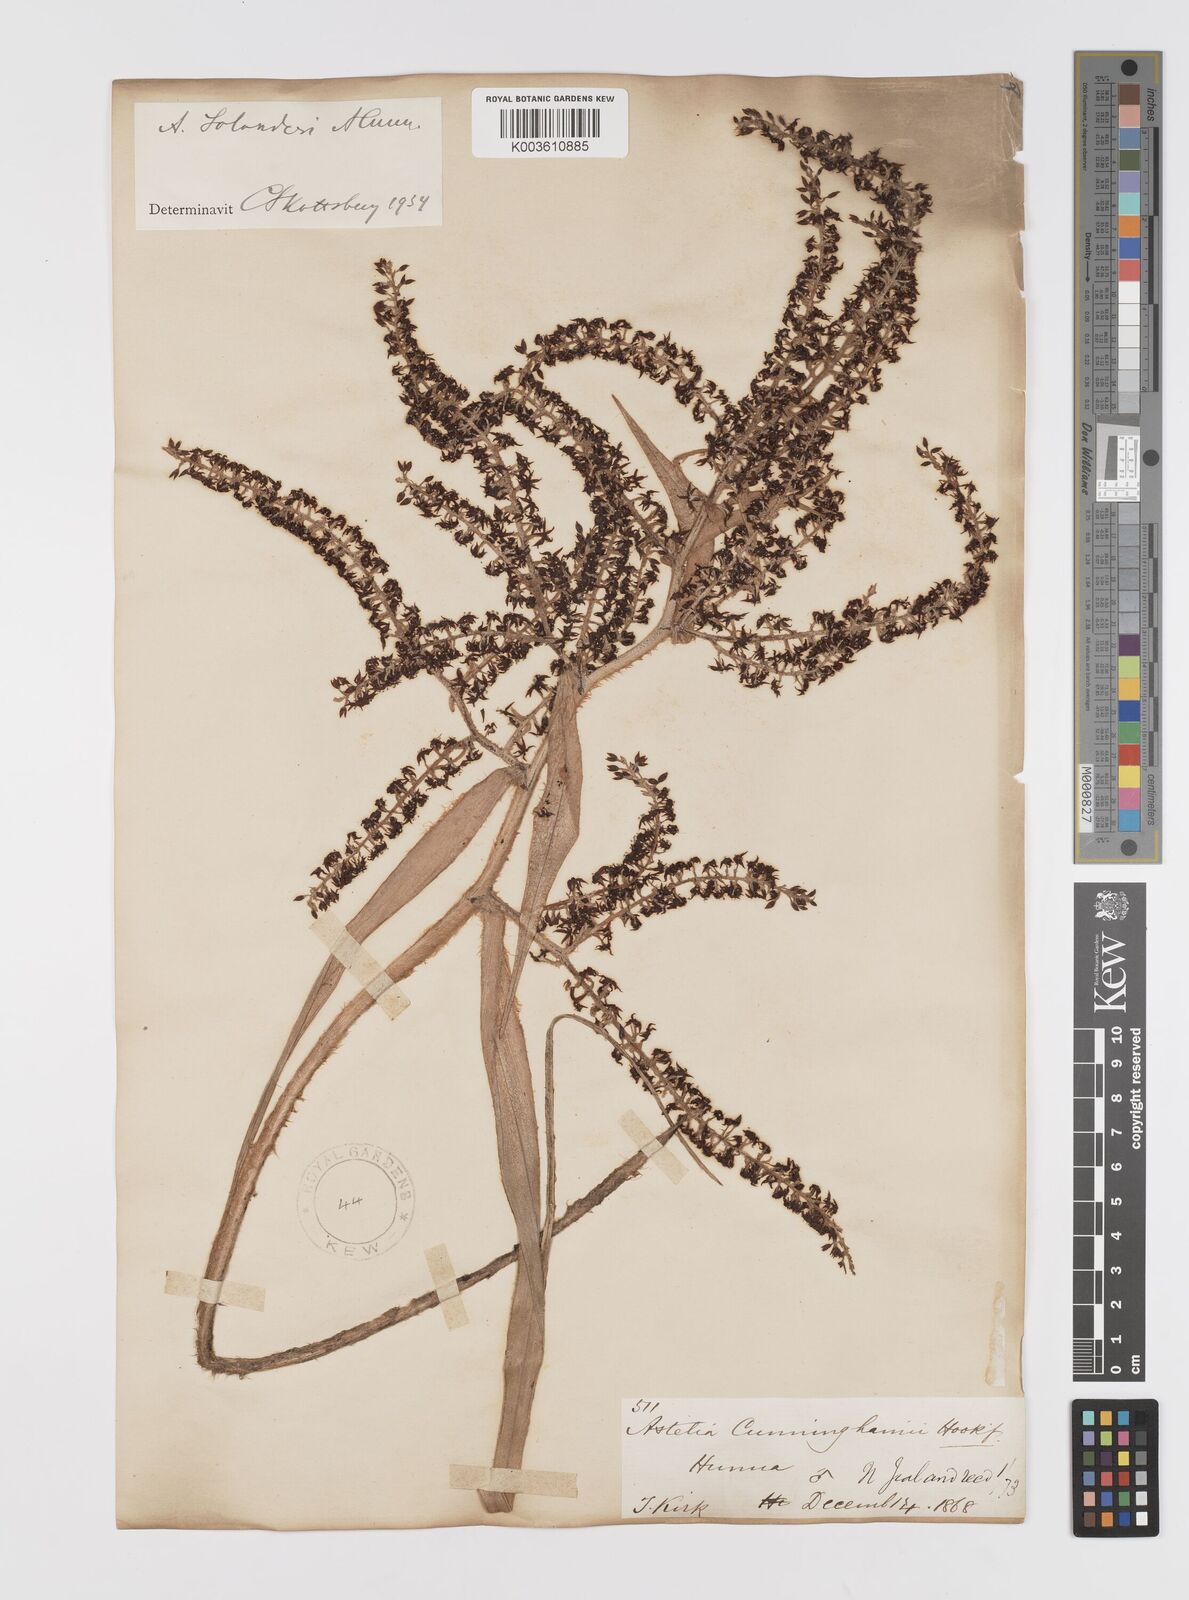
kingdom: Plantae
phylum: Tracheophyta
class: Liliopsida
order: Asparagales
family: Asteliaceae
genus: Astelia
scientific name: Astelia solandri
